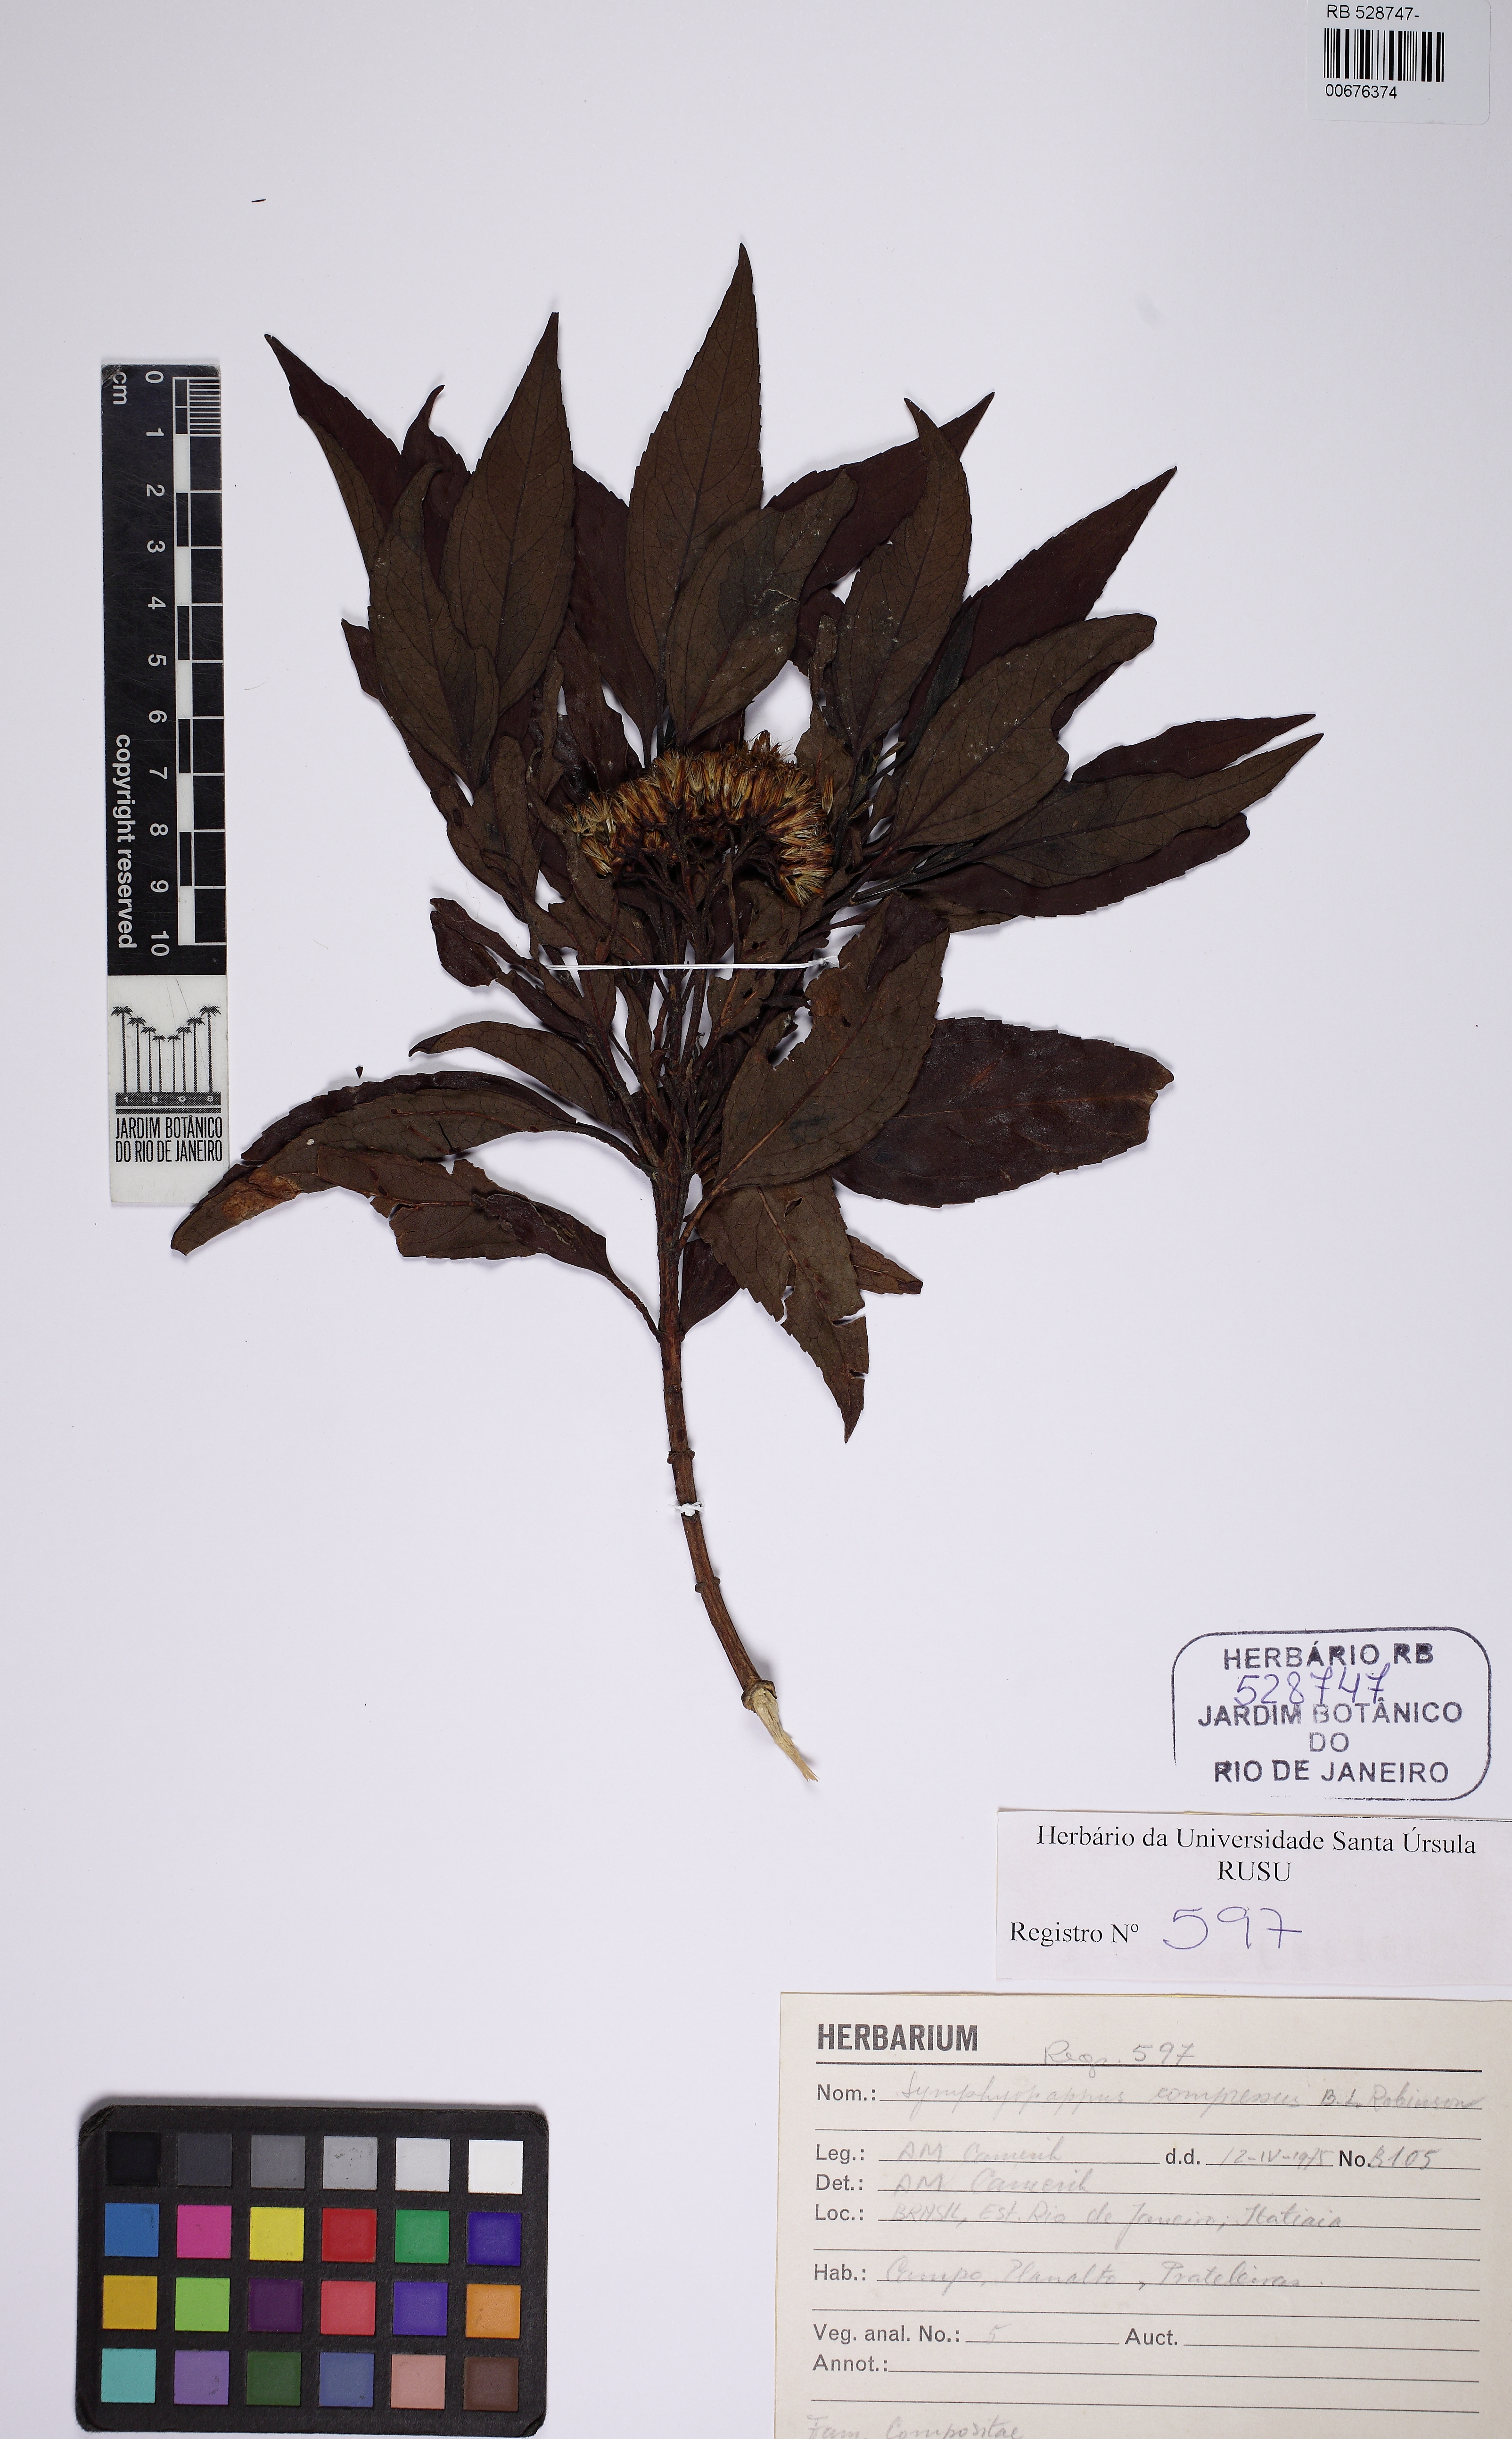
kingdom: Plantae
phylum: Tracheophyta
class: Magnoliopsida
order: Asterales
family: Asteraceae
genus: Symphyopappus
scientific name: Symphyopappus compressus
